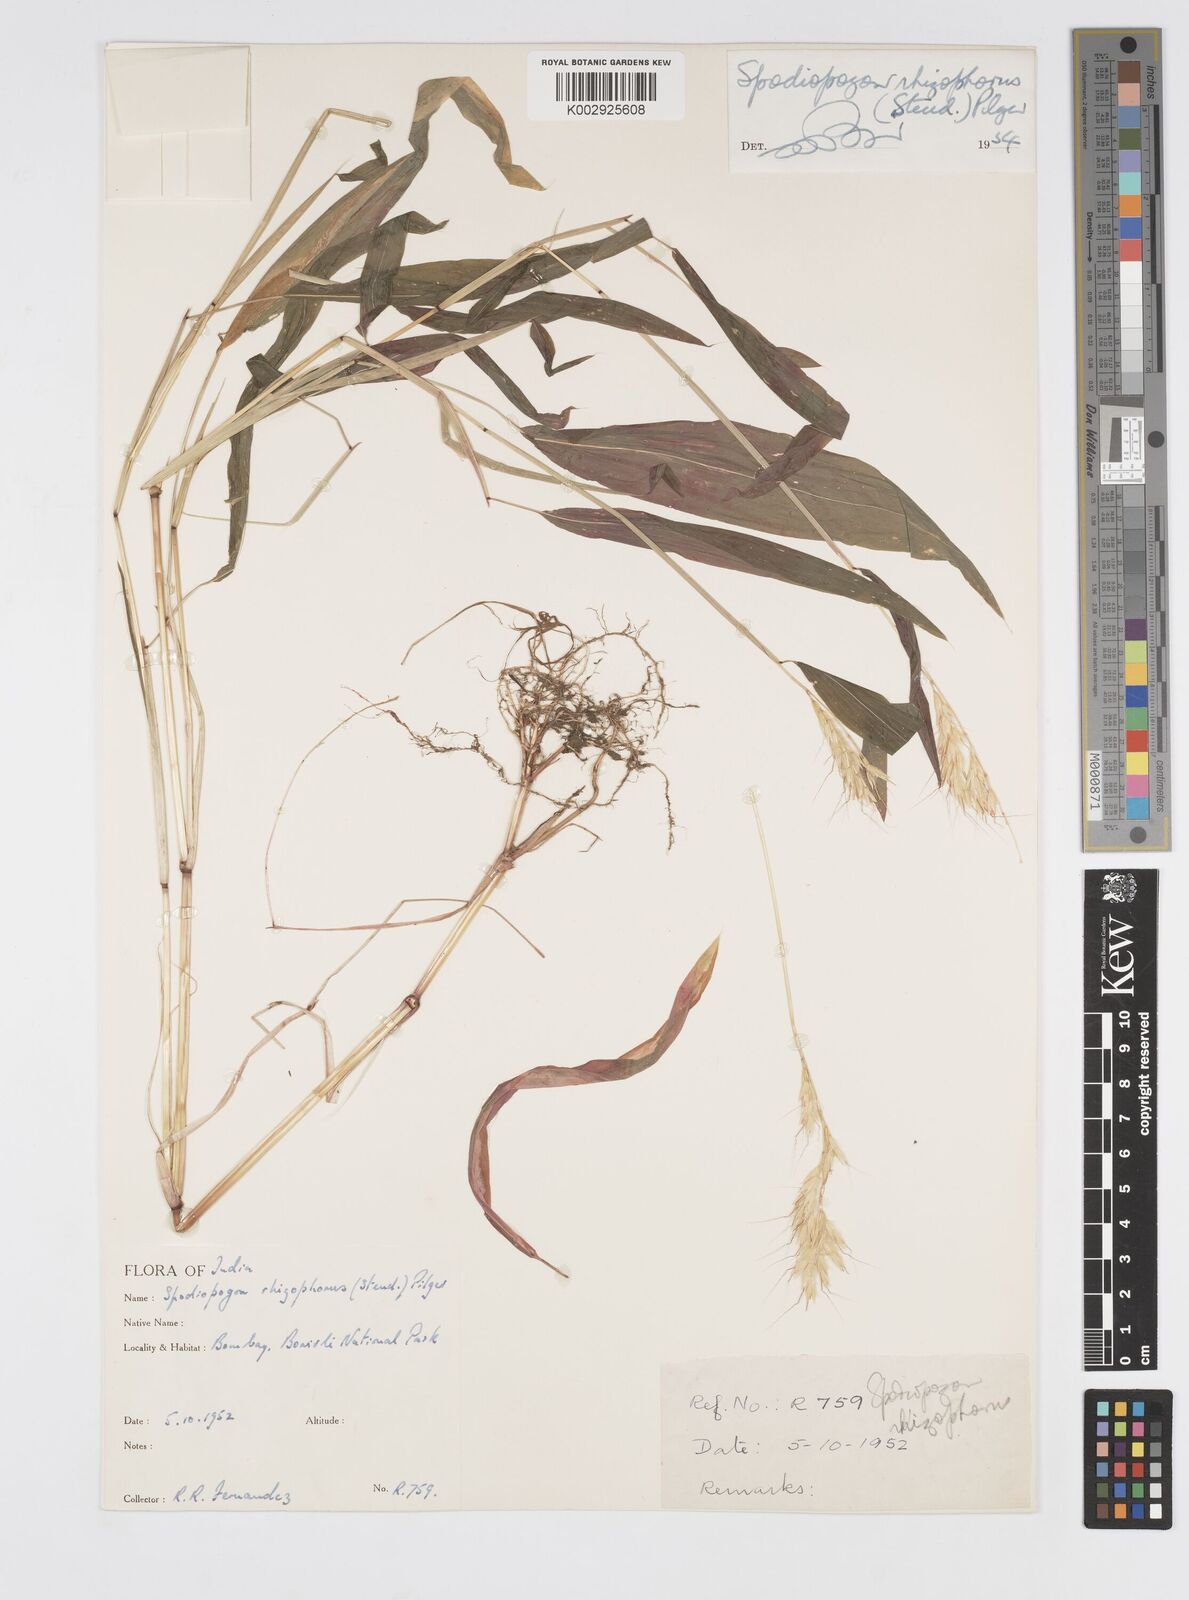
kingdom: Plantae
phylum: Tracheophyta
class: Liliopsida
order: Poales
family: Poaceae
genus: Spodiopogon
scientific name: Spodiopogon rhizophorus
